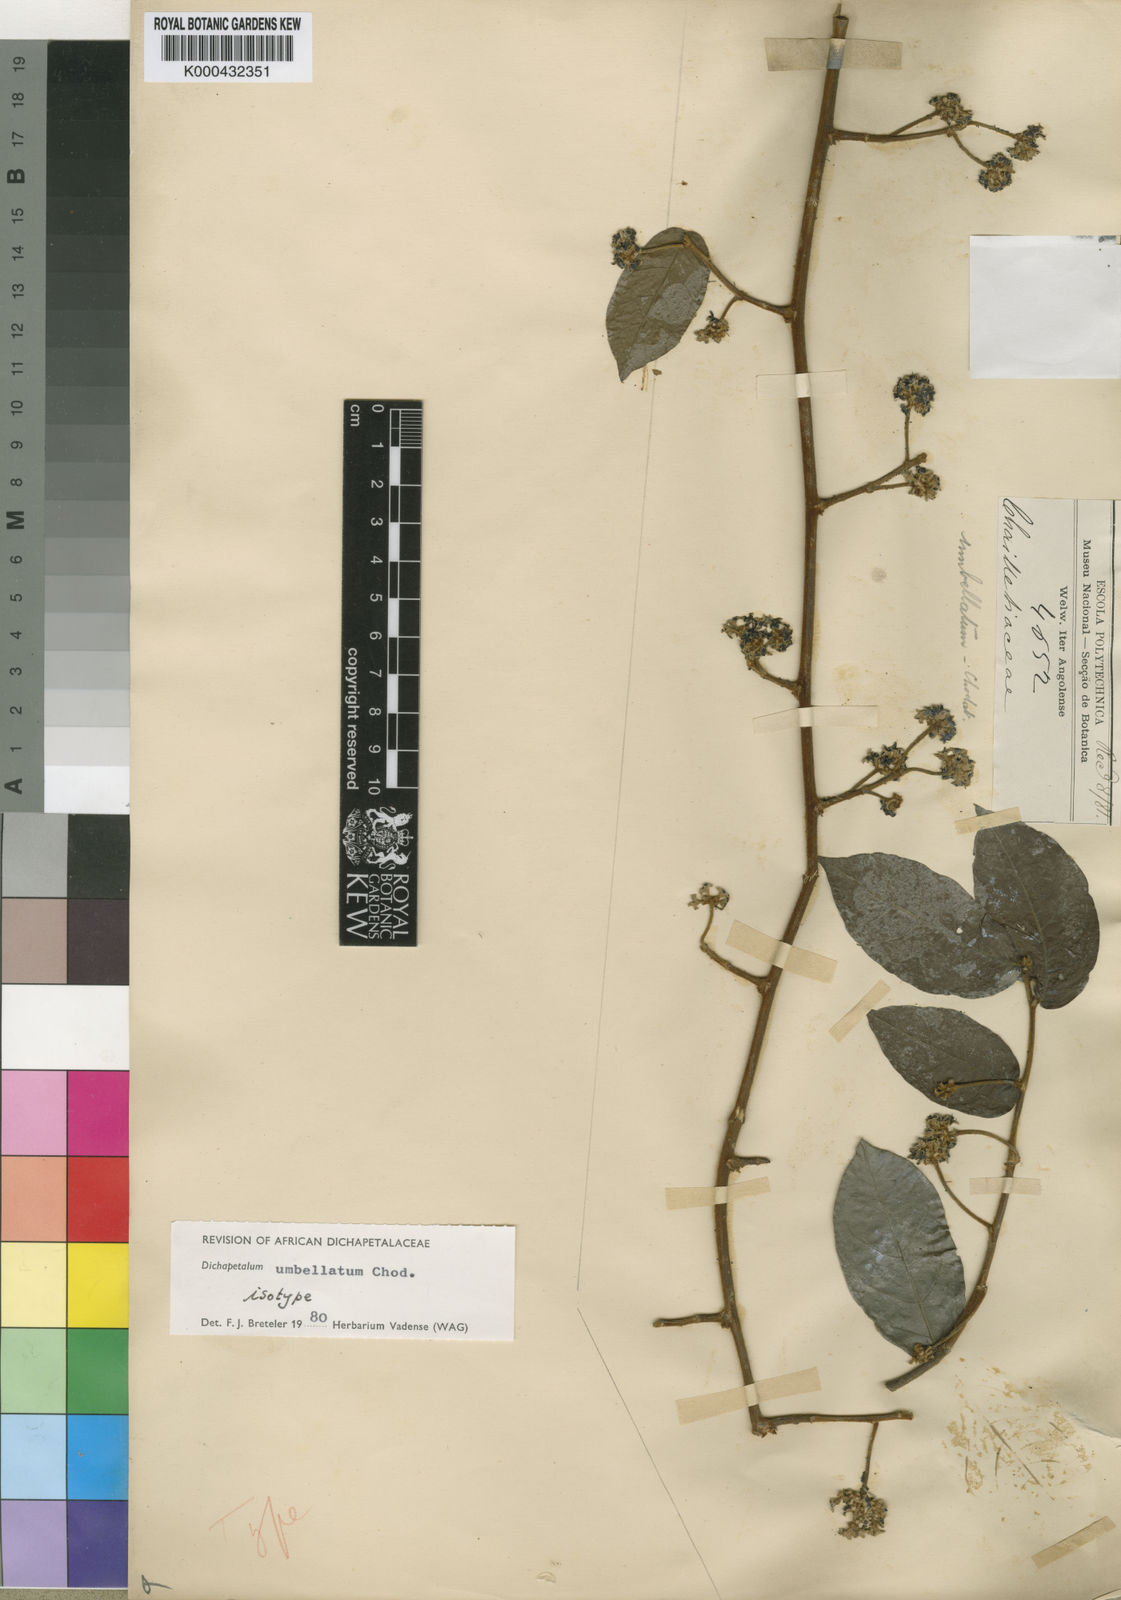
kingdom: Plantae
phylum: Tracheophyta
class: Magnoliopsida
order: Malpighiales
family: Dichapetalaceae
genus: Dichapetalum
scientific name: Dichapetalum umbellatum
